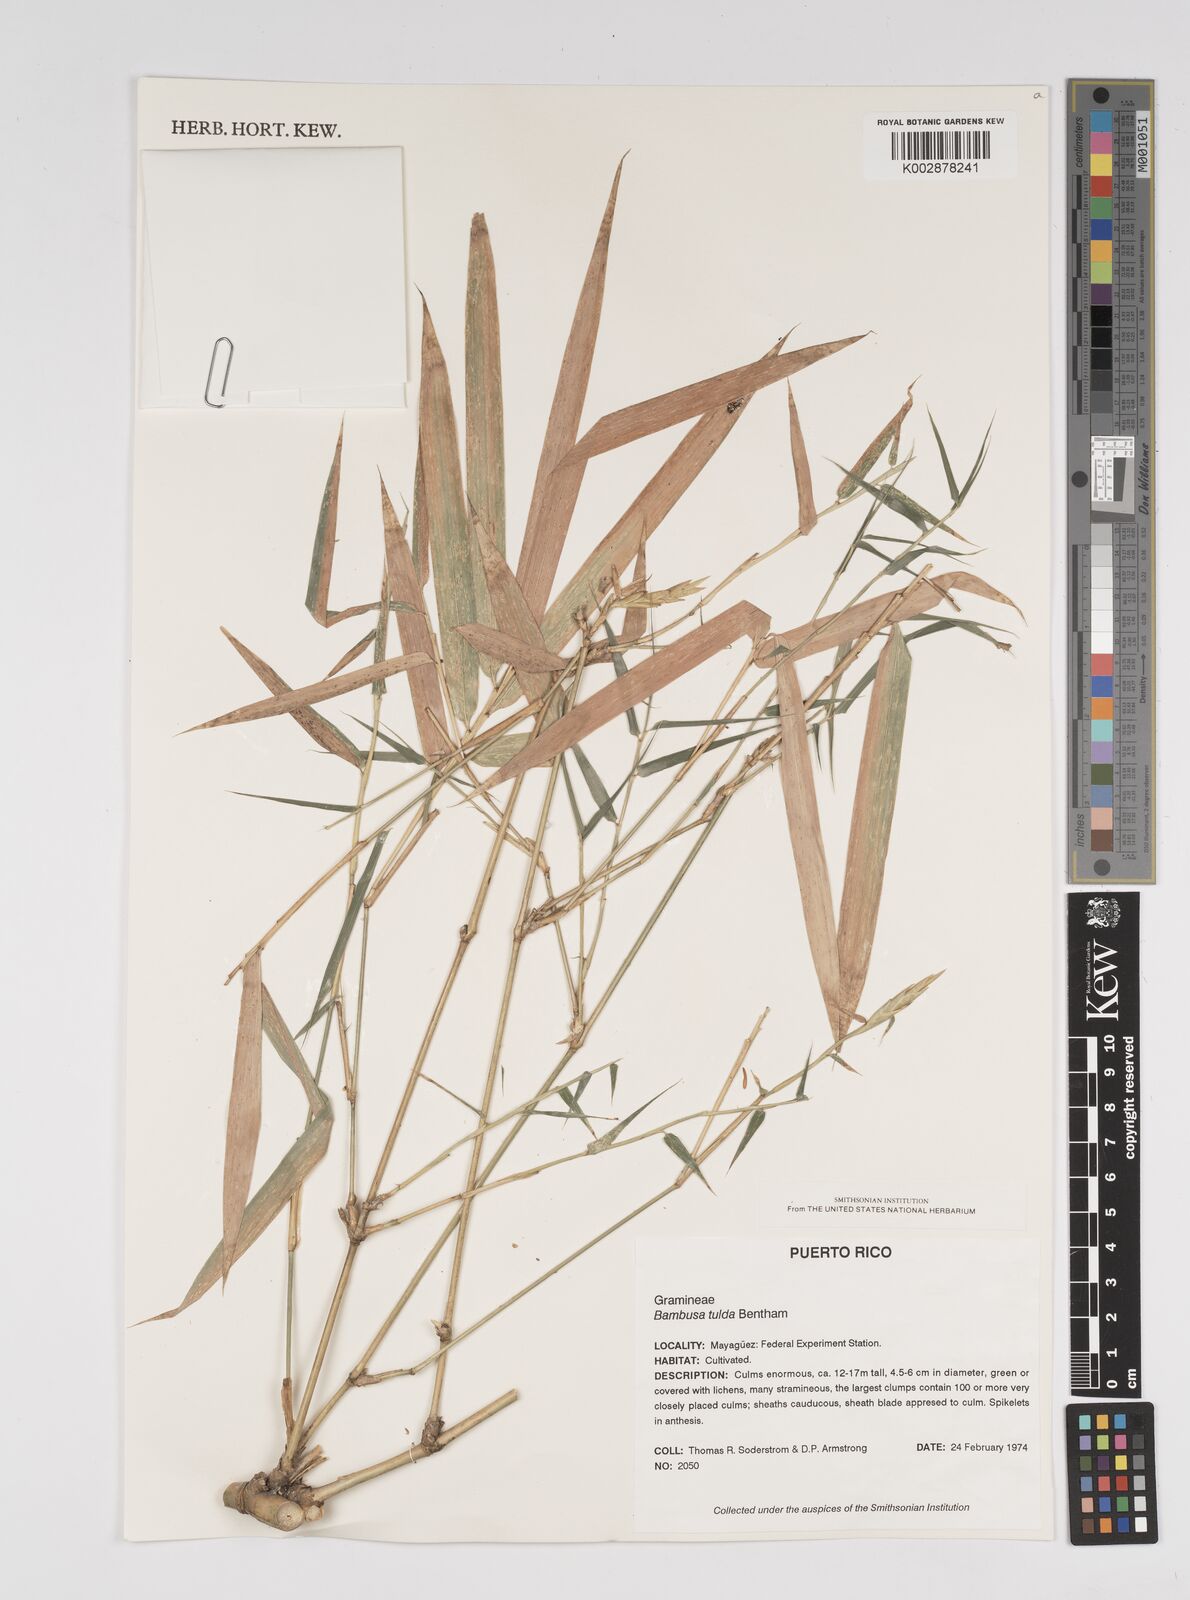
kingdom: Plantae
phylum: Tracheophyta
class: Liliopsida
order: Poales
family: Poaceae
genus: Bambusa
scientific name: Bambusa tuldoides
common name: Verdant bamboo
